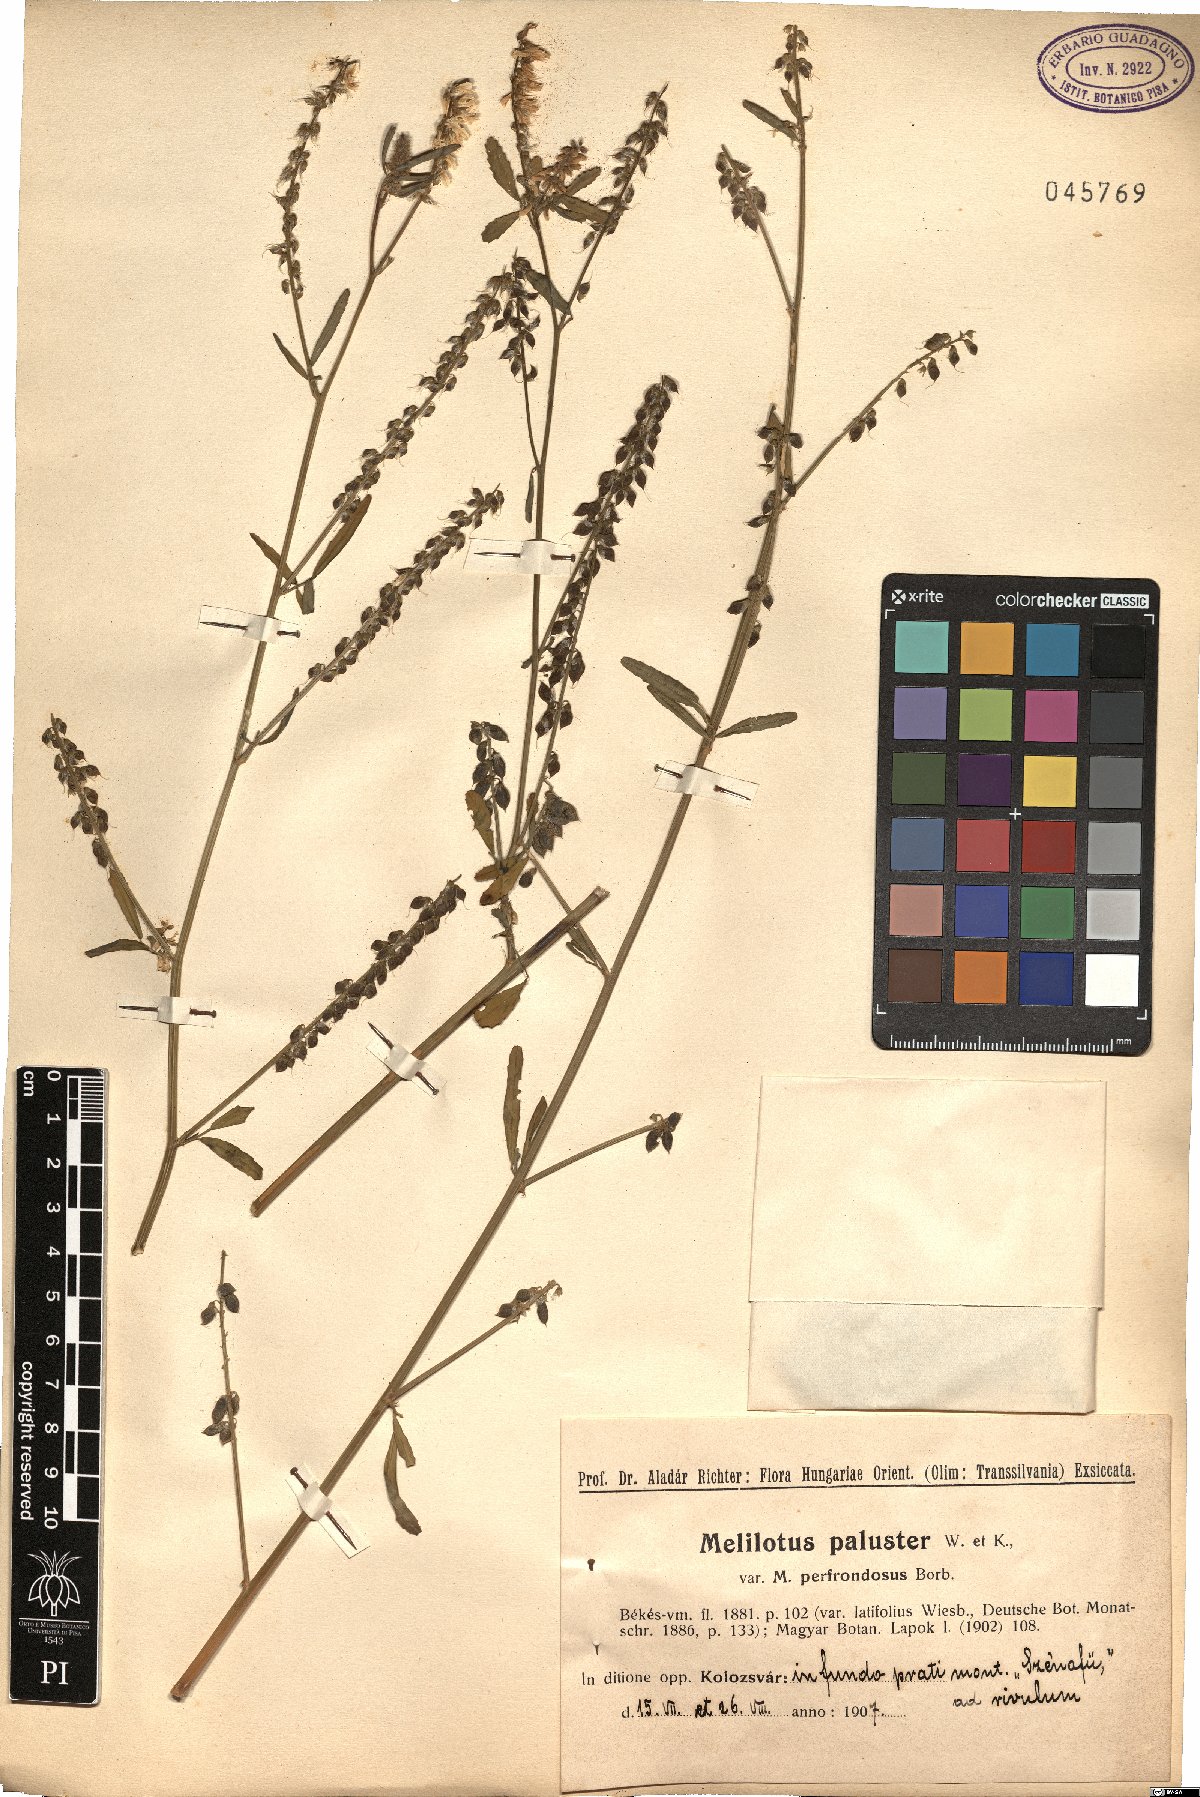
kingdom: Plantae
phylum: Tracheophyta
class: Magnoliopsida
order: Fabales
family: Fabaceae
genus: Melilotus
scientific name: Melilotus officinalis
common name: Sweetclover
